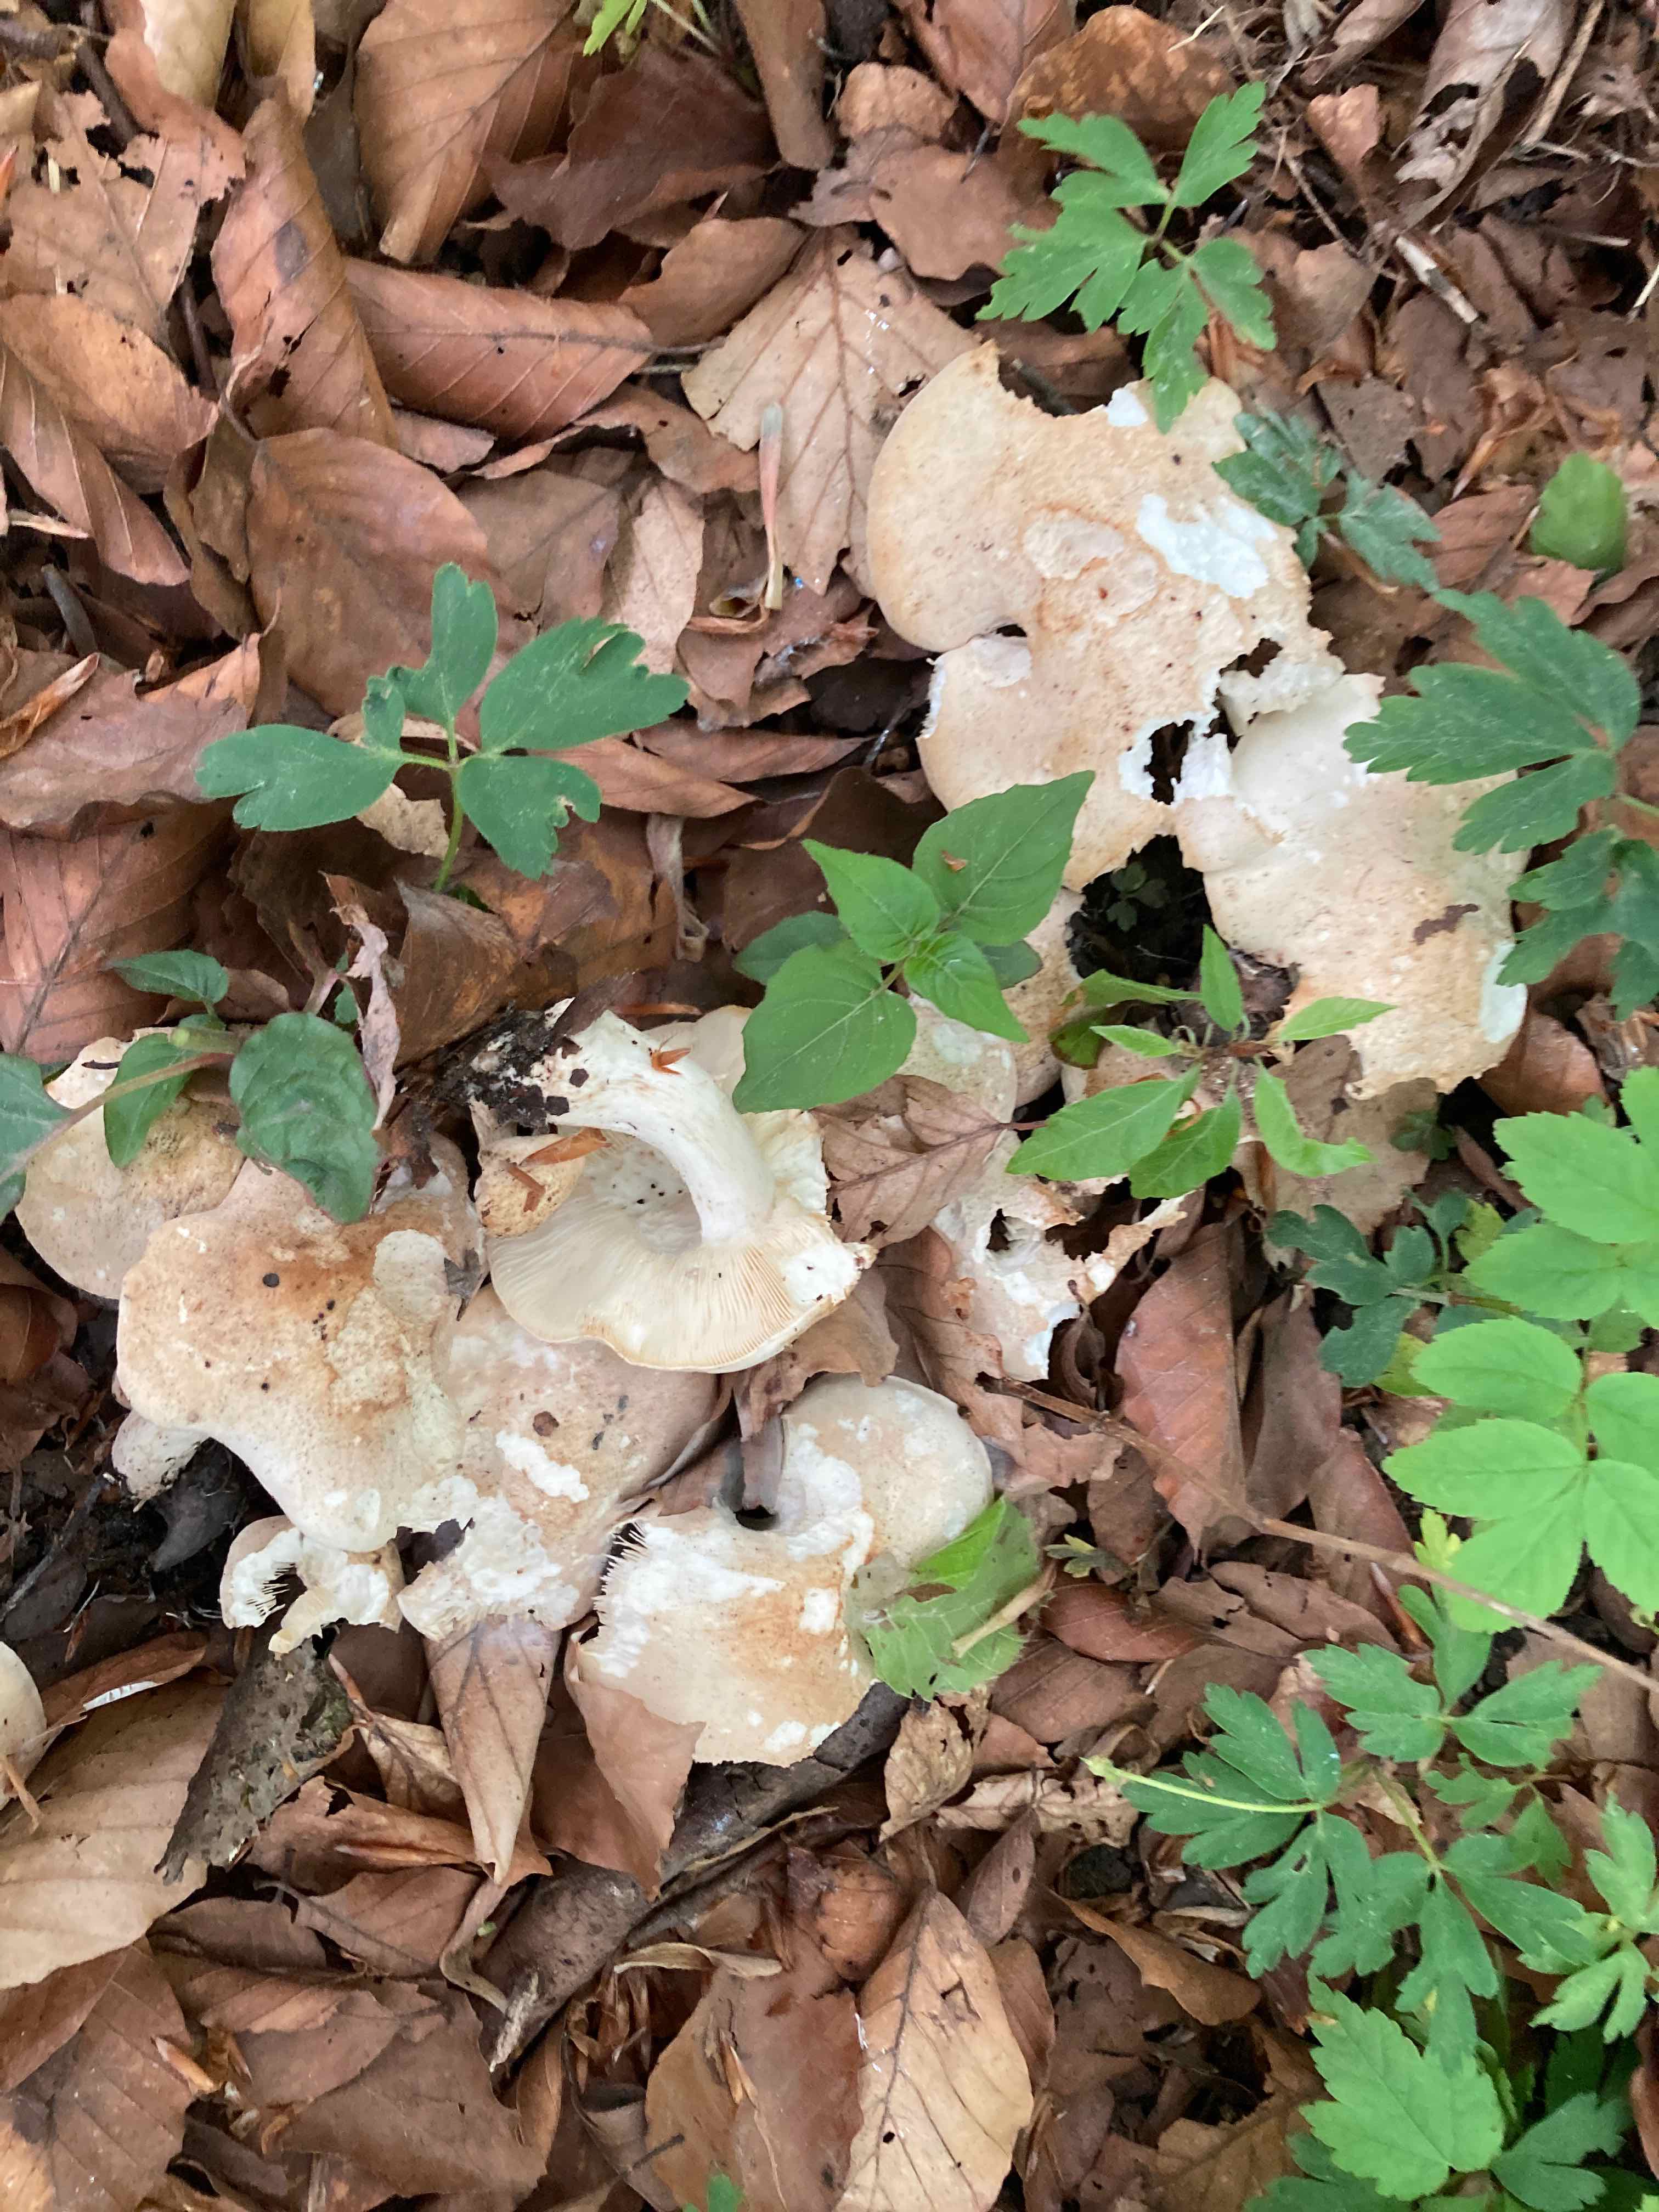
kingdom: Fungi
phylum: Basidiomycota
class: Agaricomycetes
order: Agaricales
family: Lyophyllaceae
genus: Calocybe
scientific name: Calocybe gambosa
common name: vårmusseron
